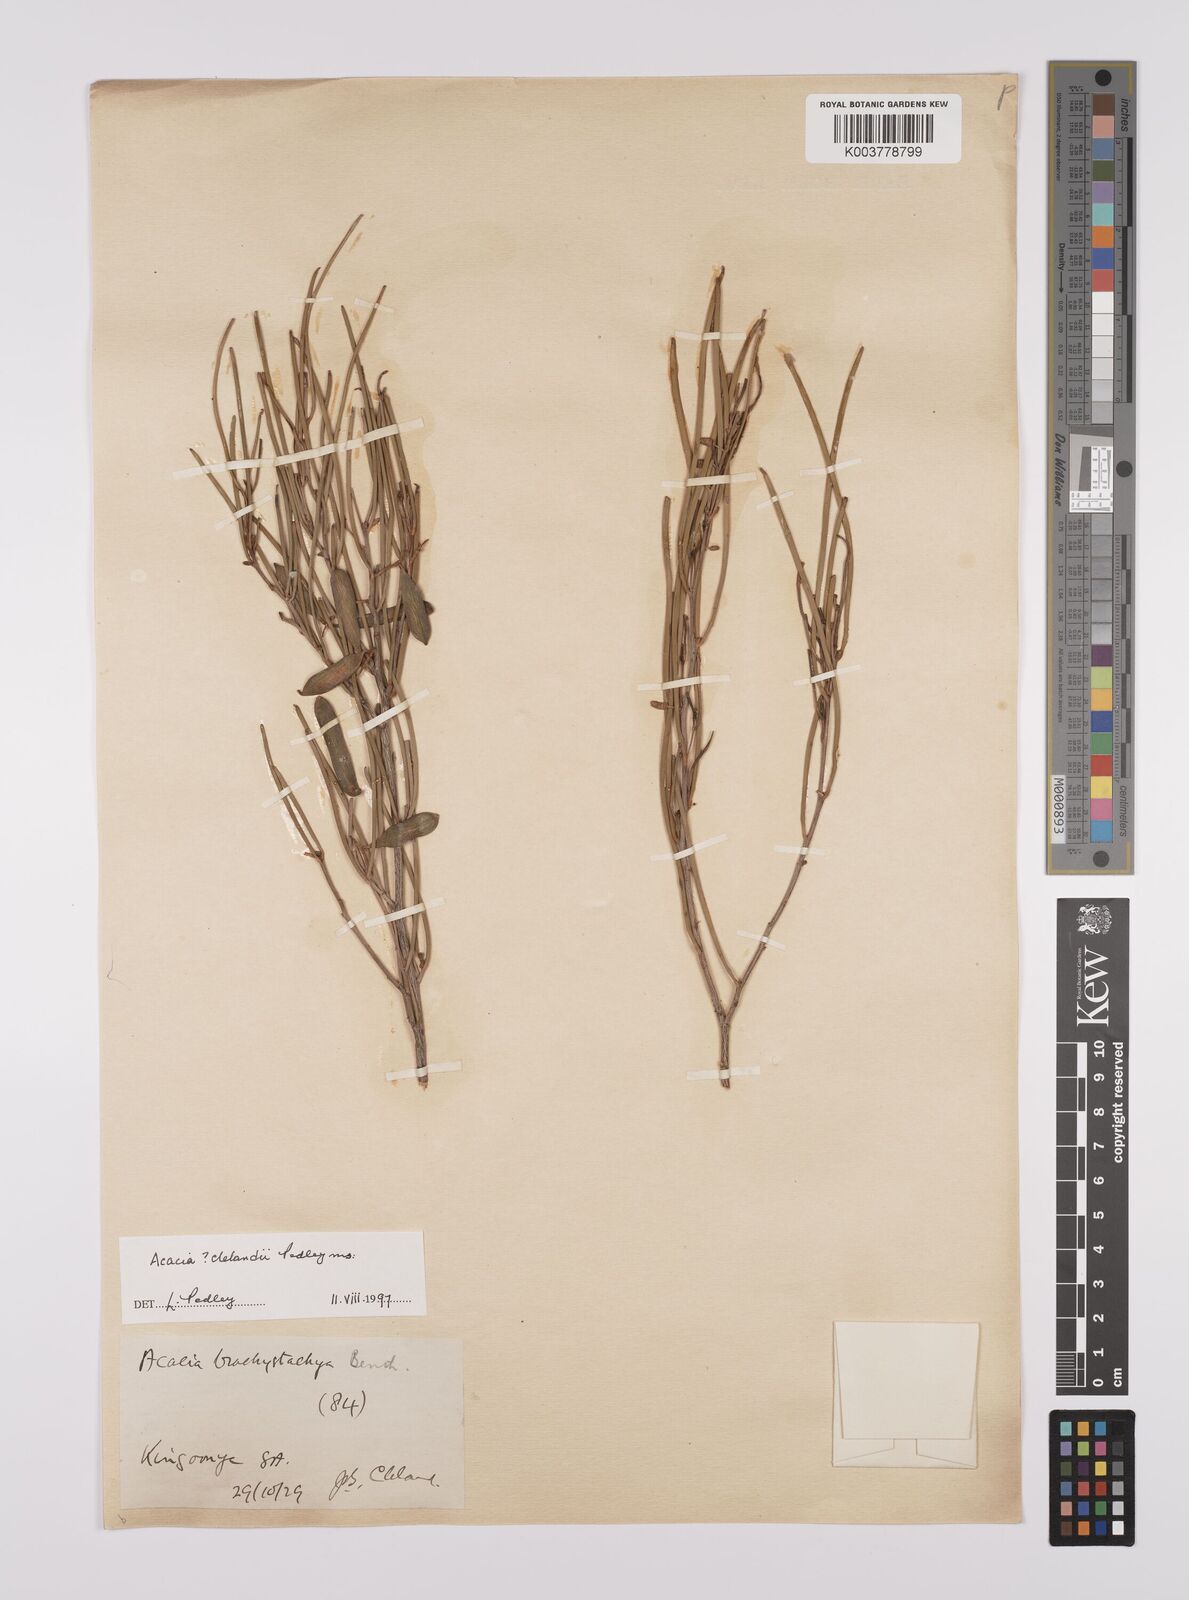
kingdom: Plantae
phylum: Tracheophyta
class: Magnoliopsida
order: Fabales
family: Fabaceae
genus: Acacia
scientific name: Acacia clelandii
